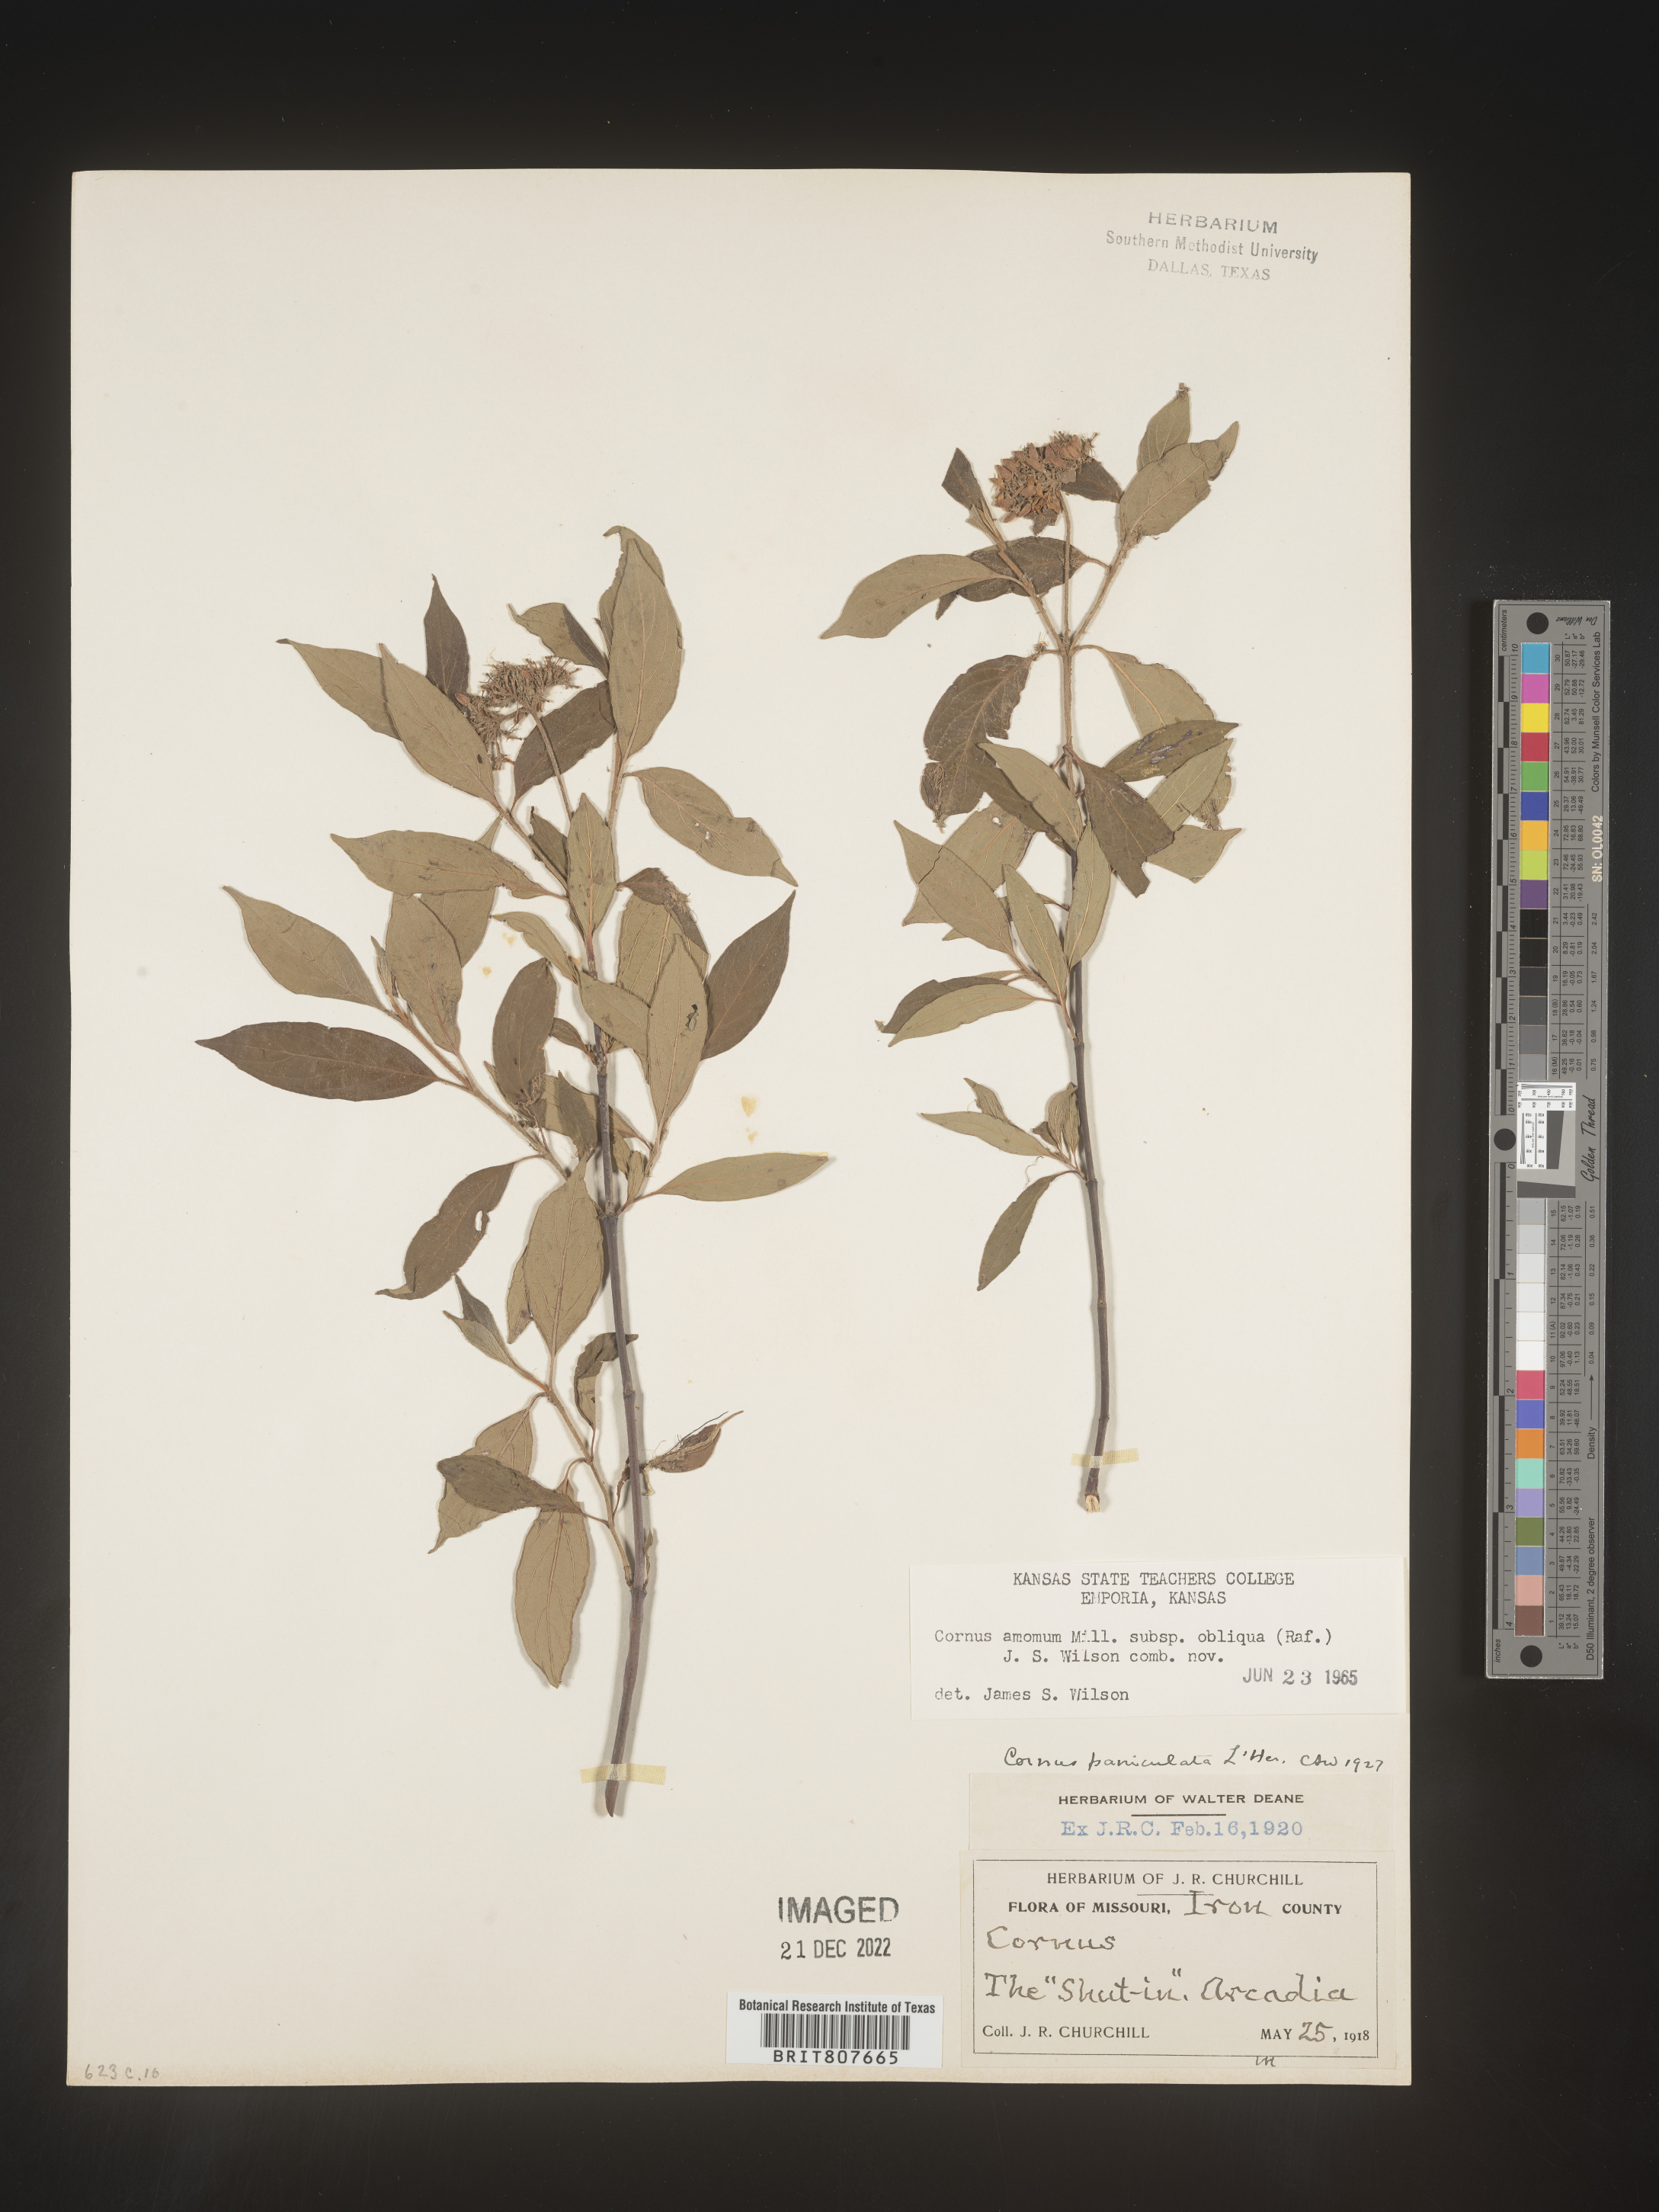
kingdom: Plantae
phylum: Tracheophyta
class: Magnoliopsida
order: Cornales
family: Cornaceae
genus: Cornus
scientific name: Cornus obliqua
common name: Pale dogwood
